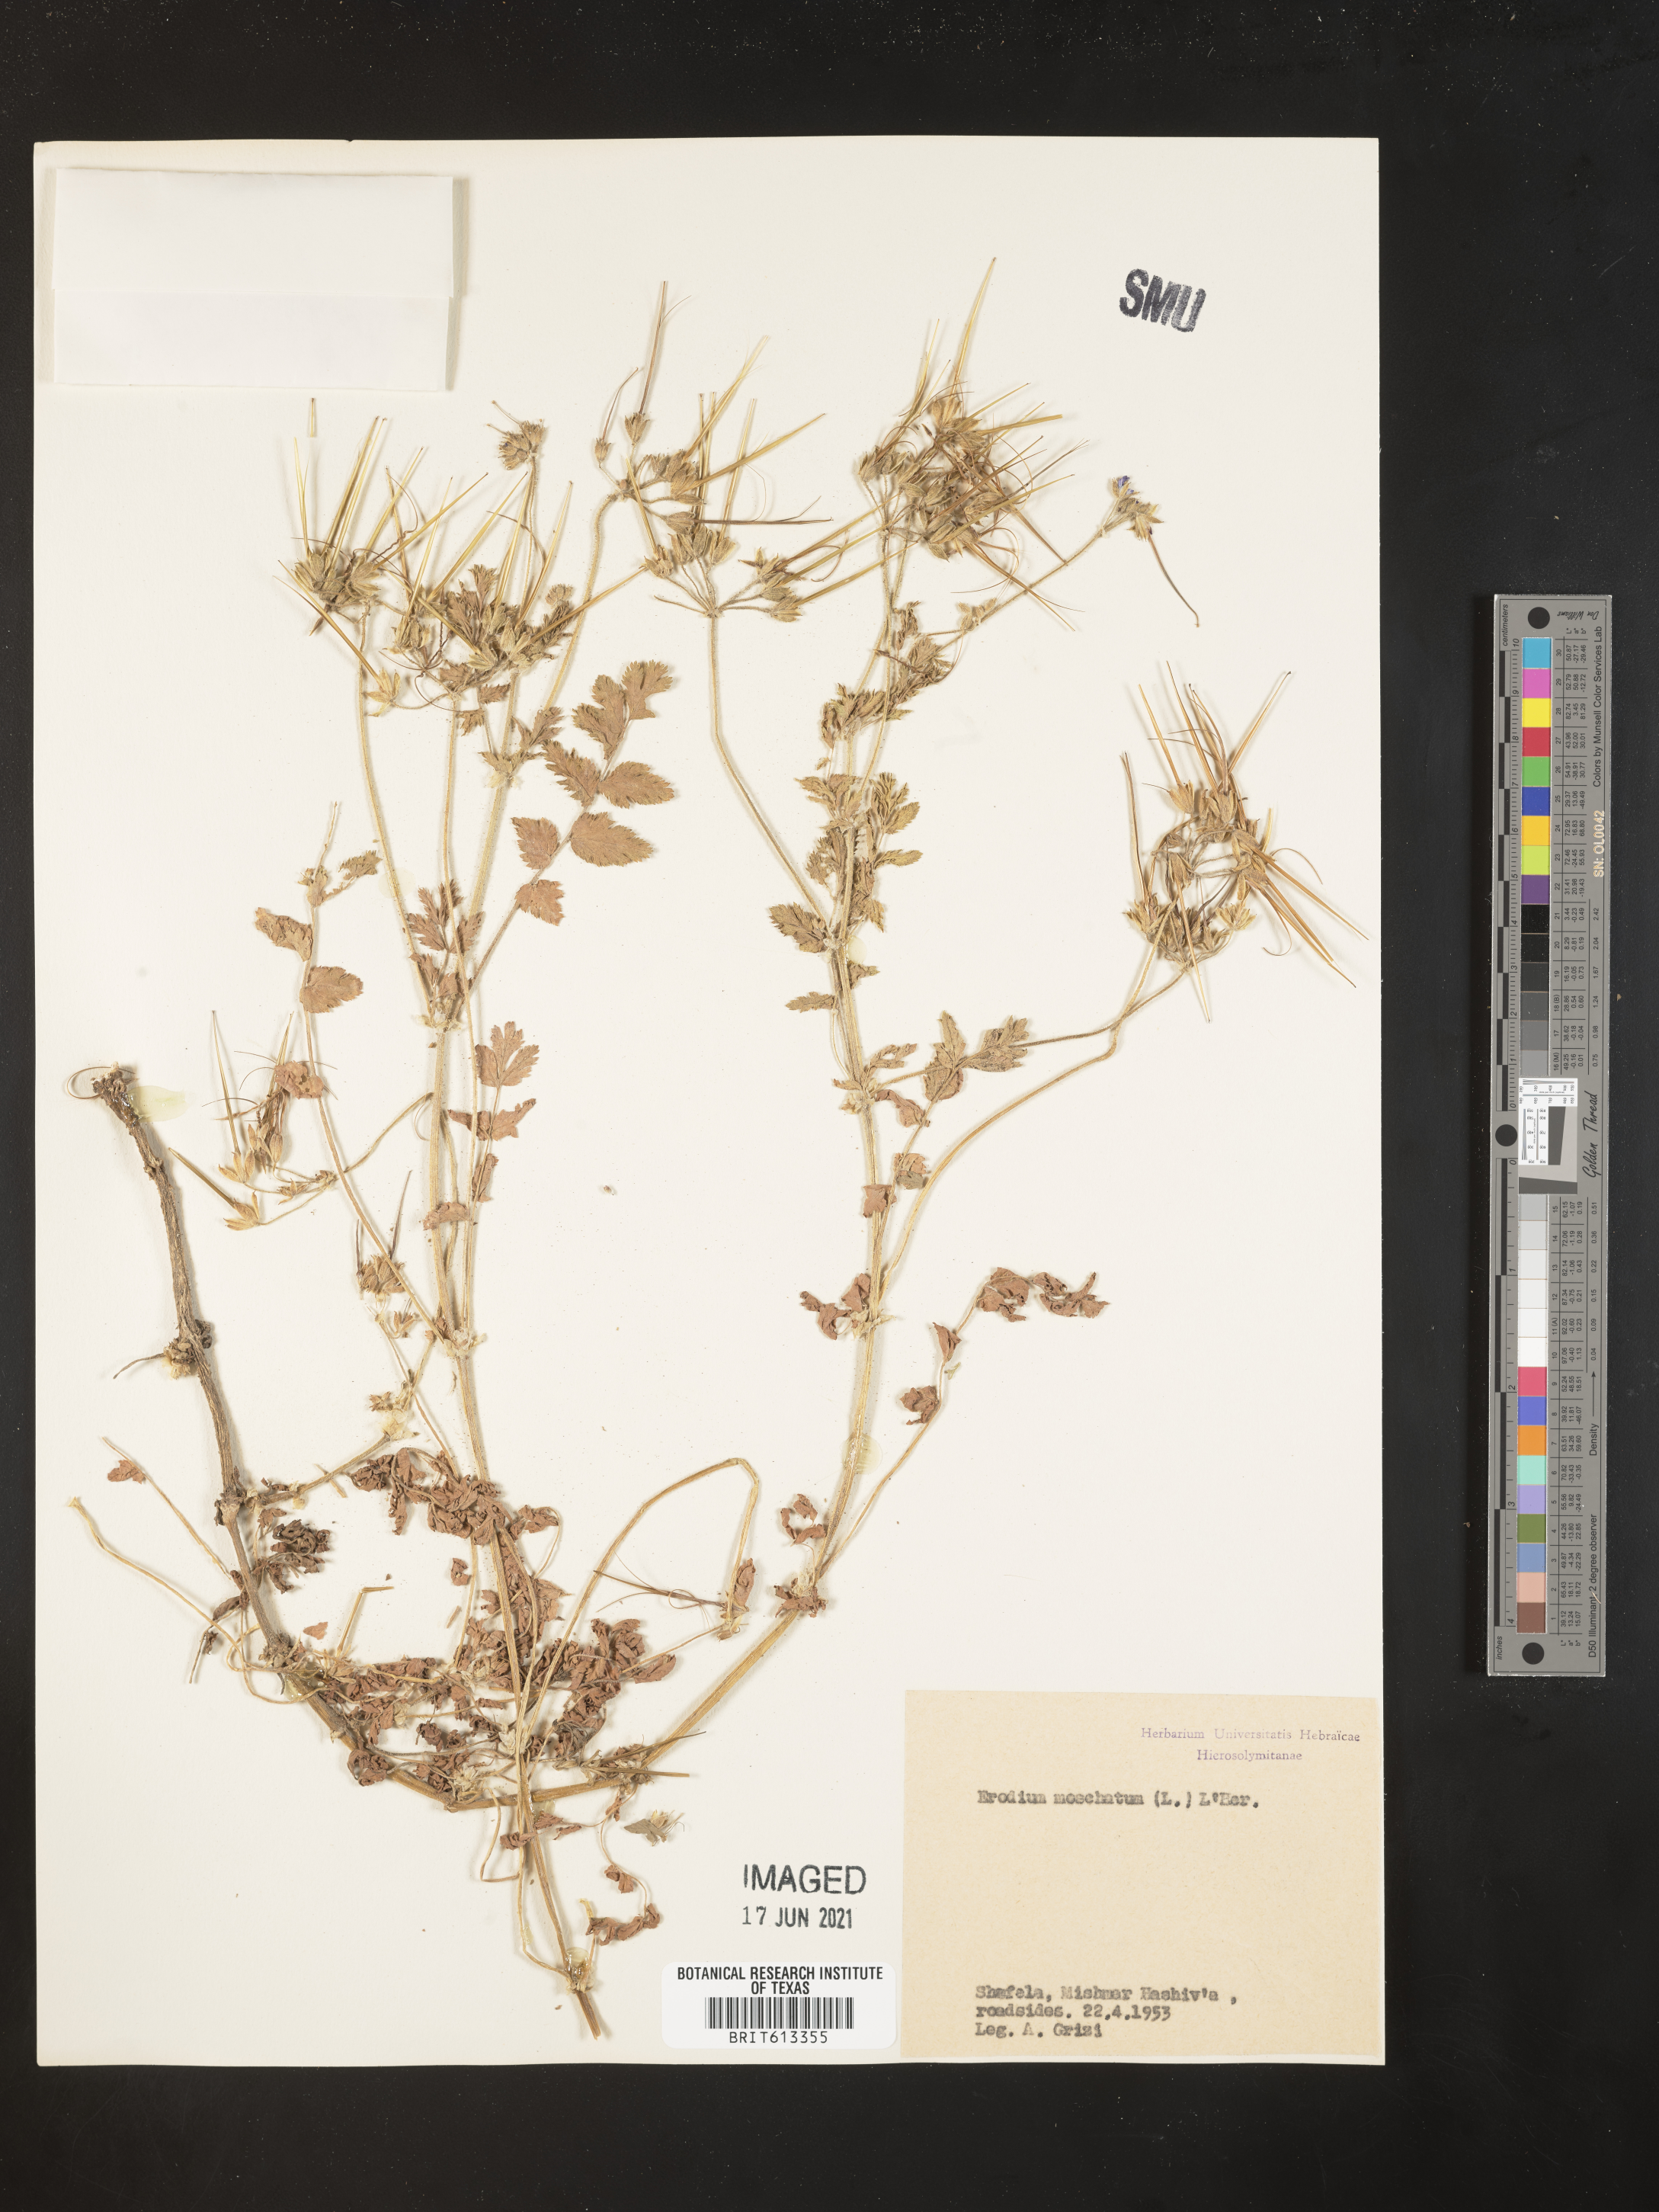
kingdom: Plantae
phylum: Tracheophyta
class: Magnoliopsida
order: Geraniales
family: Geraniaceae
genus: Erodium
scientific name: Erodium moschatum
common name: Musk stork's-bill
